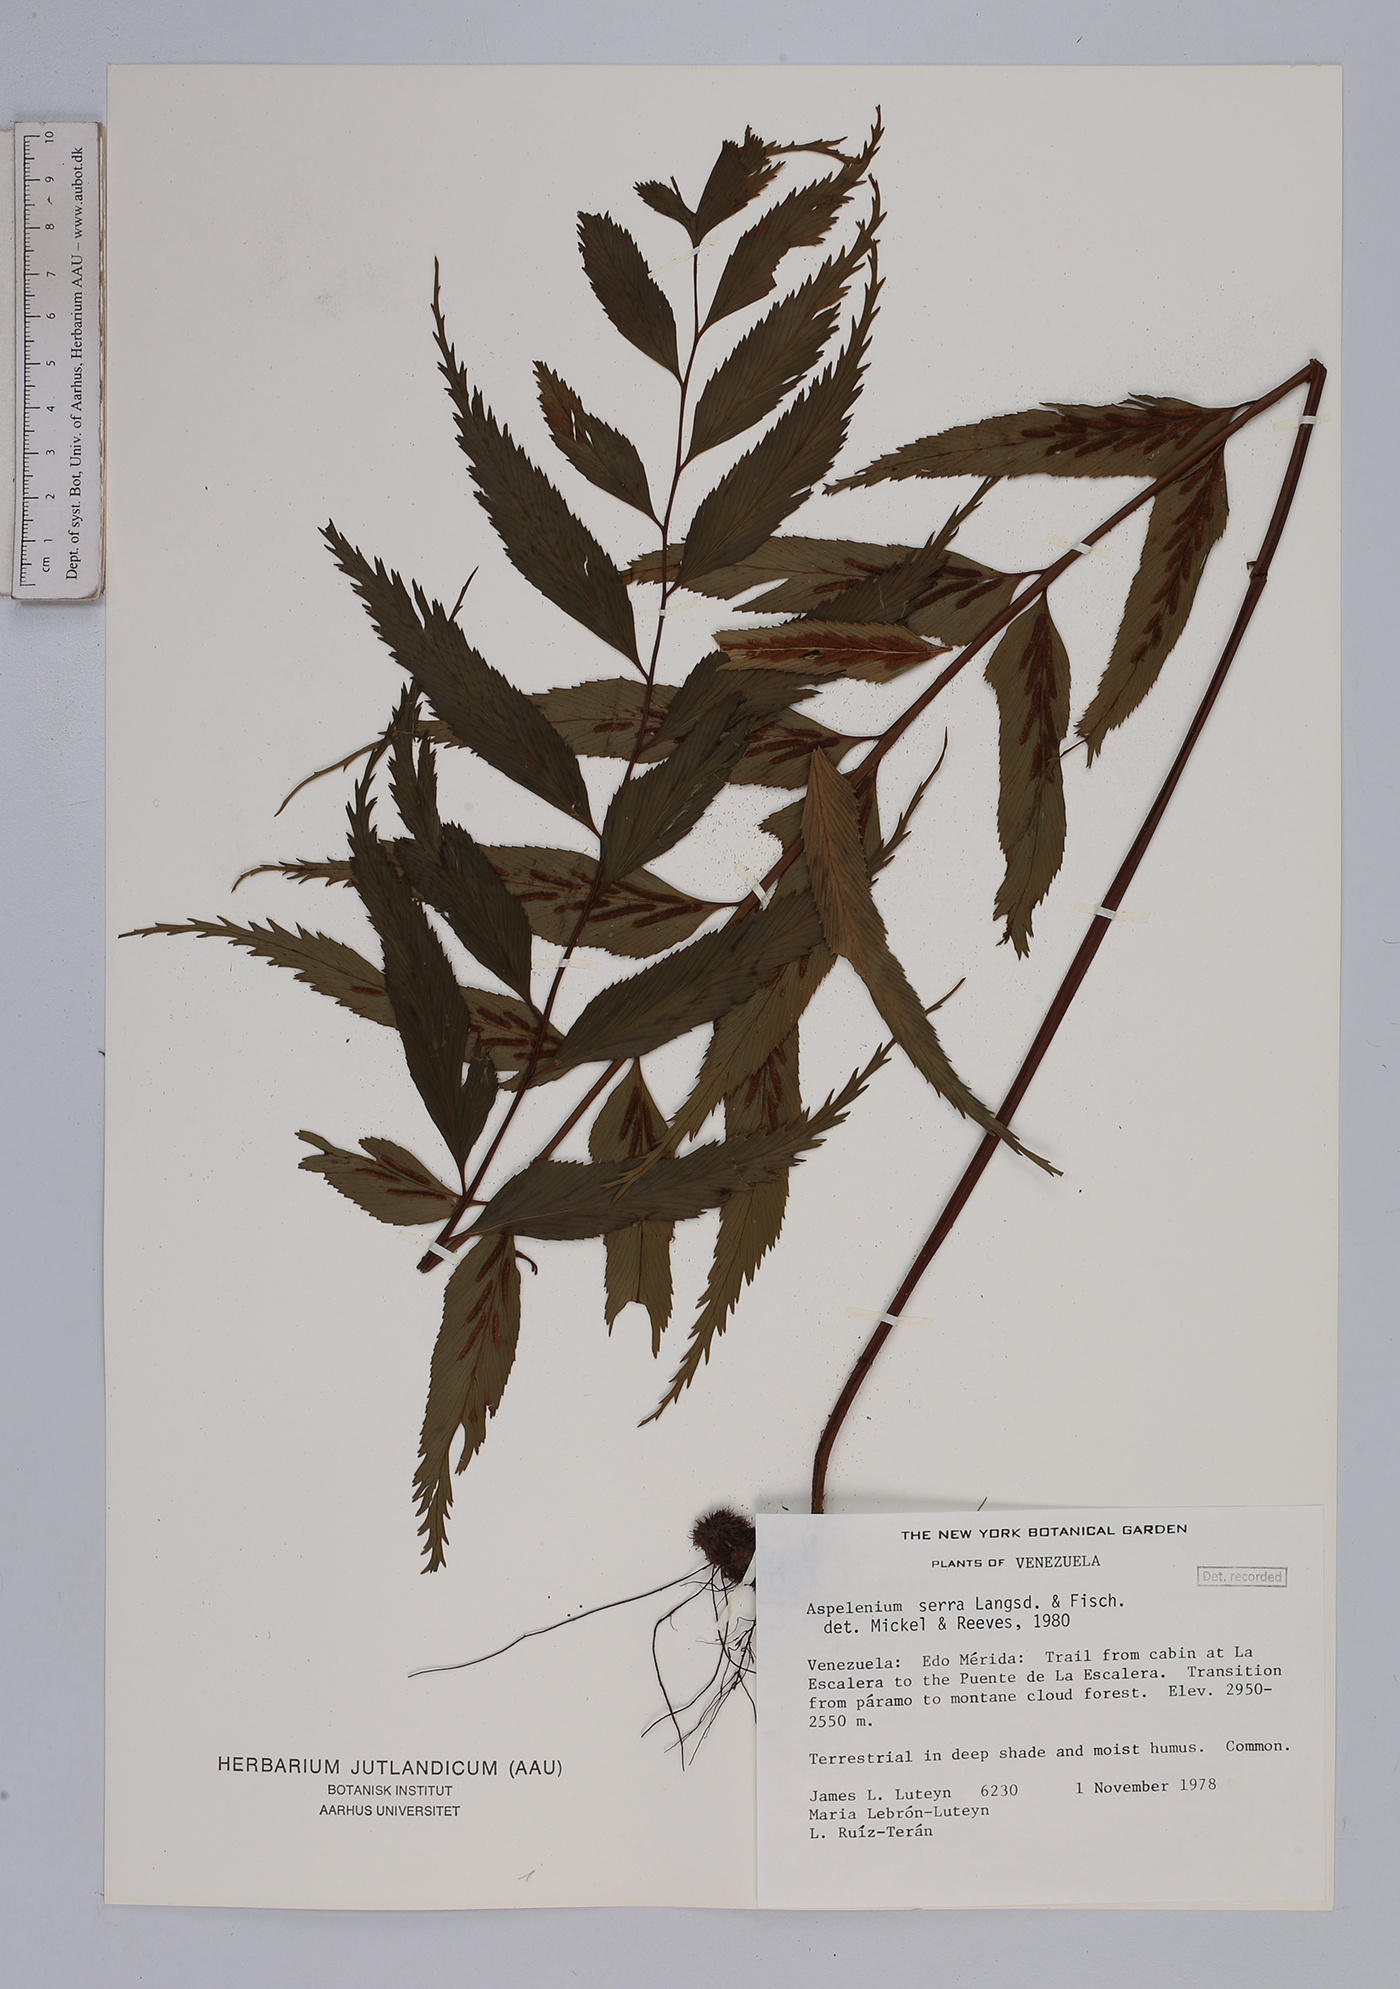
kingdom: Plantae
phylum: Tracheophyta
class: Polypodiopsida
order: Polypodiales
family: Aspleniaceae
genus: Asplenium
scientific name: Asplenium serra
